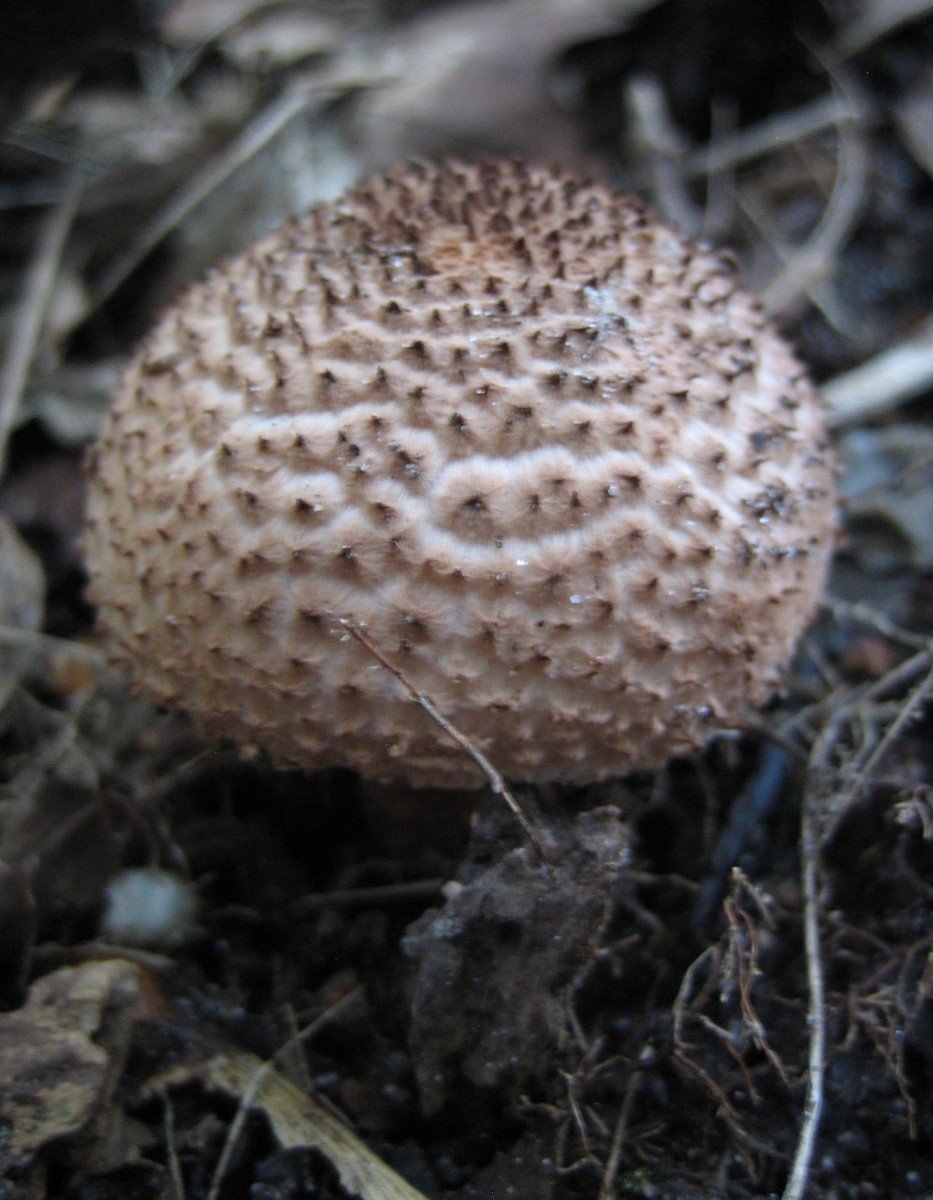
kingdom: Fungi
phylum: Basidiomycota
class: Agaricomycetes
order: Agaricales
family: Agaricaceae
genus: Echinoderma
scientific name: Echinoderma echinaceum
